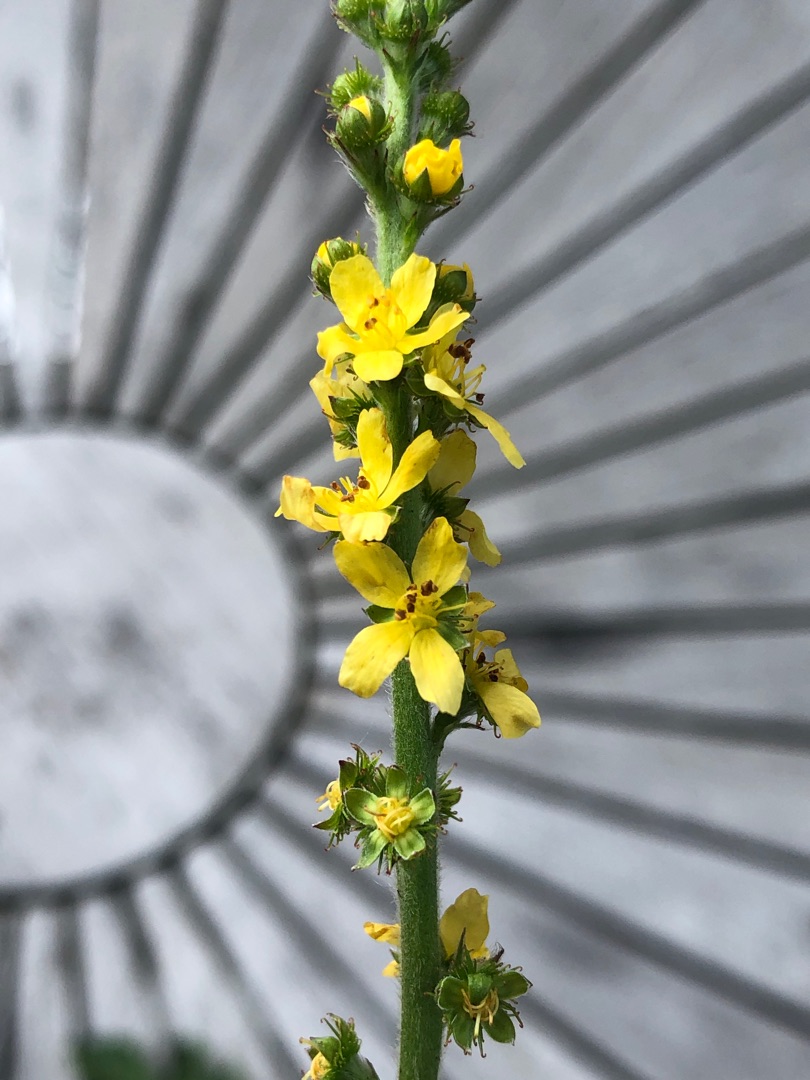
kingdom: Plantae
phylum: Tracheophyta
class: Magnoliopsida
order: Rosales
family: Rosaceae
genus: Agrimonia
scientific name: Agrimonia eupatoria
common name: Almindelig agermåne
